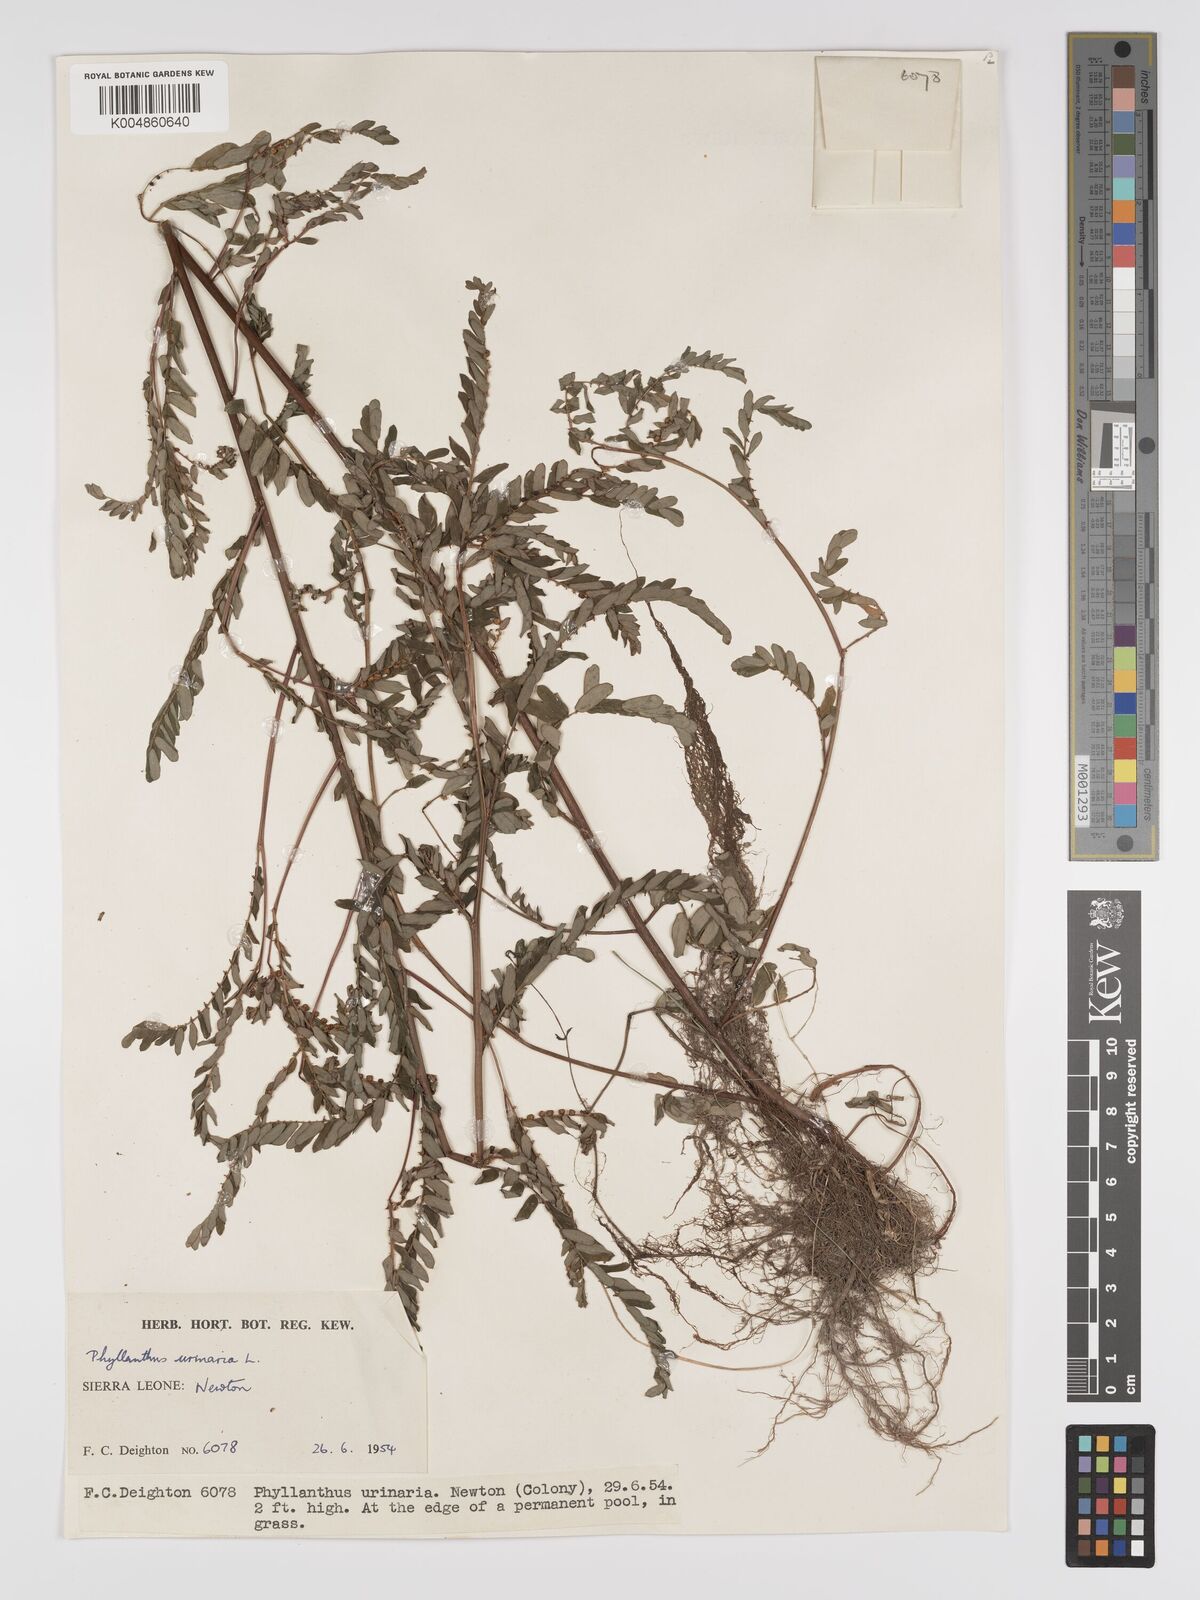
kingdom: Plantae
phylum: Tracheophyta
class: Magnoliopsida
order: Malpighiales
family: Phyllanthaceae
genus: Phyllanthus
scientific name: Phyllanthus urinaria
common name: Chamber bitter
